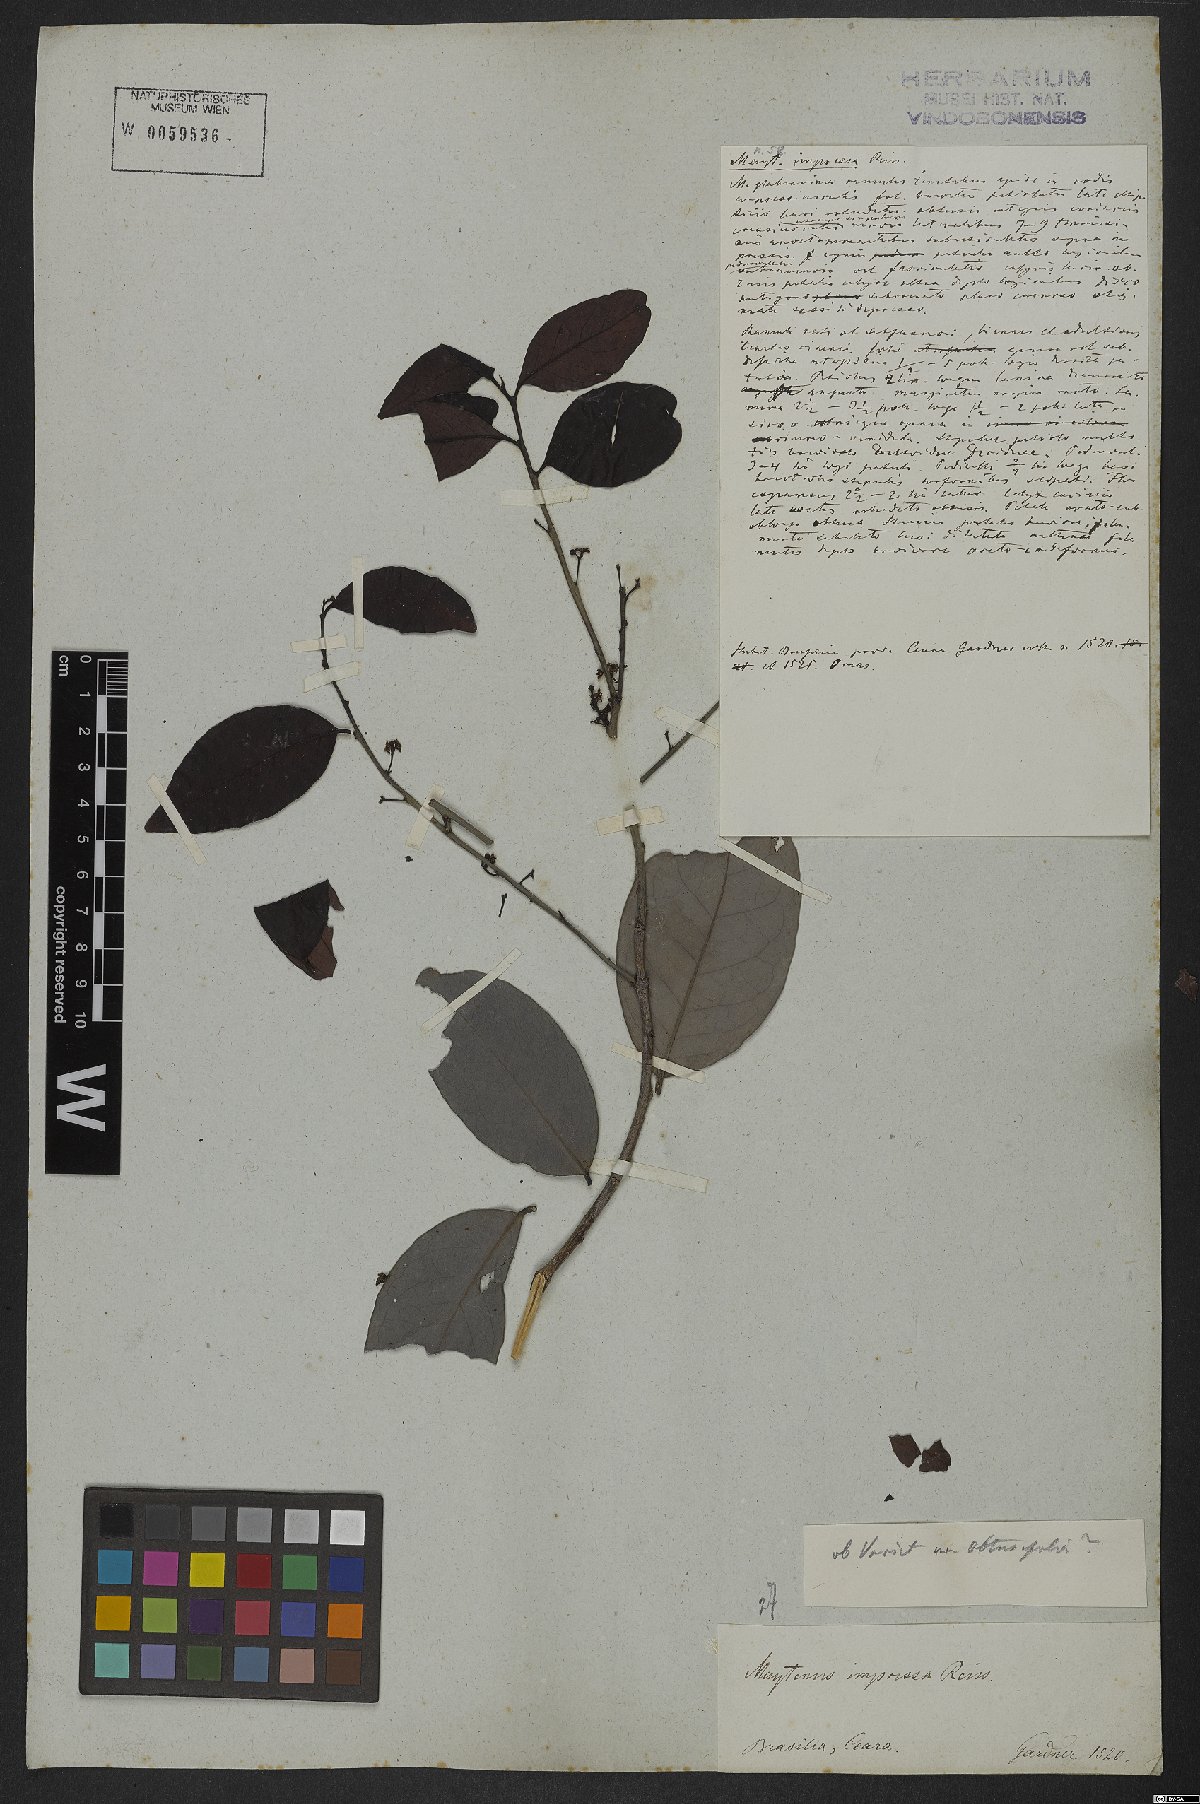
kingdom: Plantae
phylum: Tracheophyta
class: Magnoliopsida
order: Celastrales
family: Celastraceae
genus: Monteverdia
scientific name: Monteverdia obtusifolia
